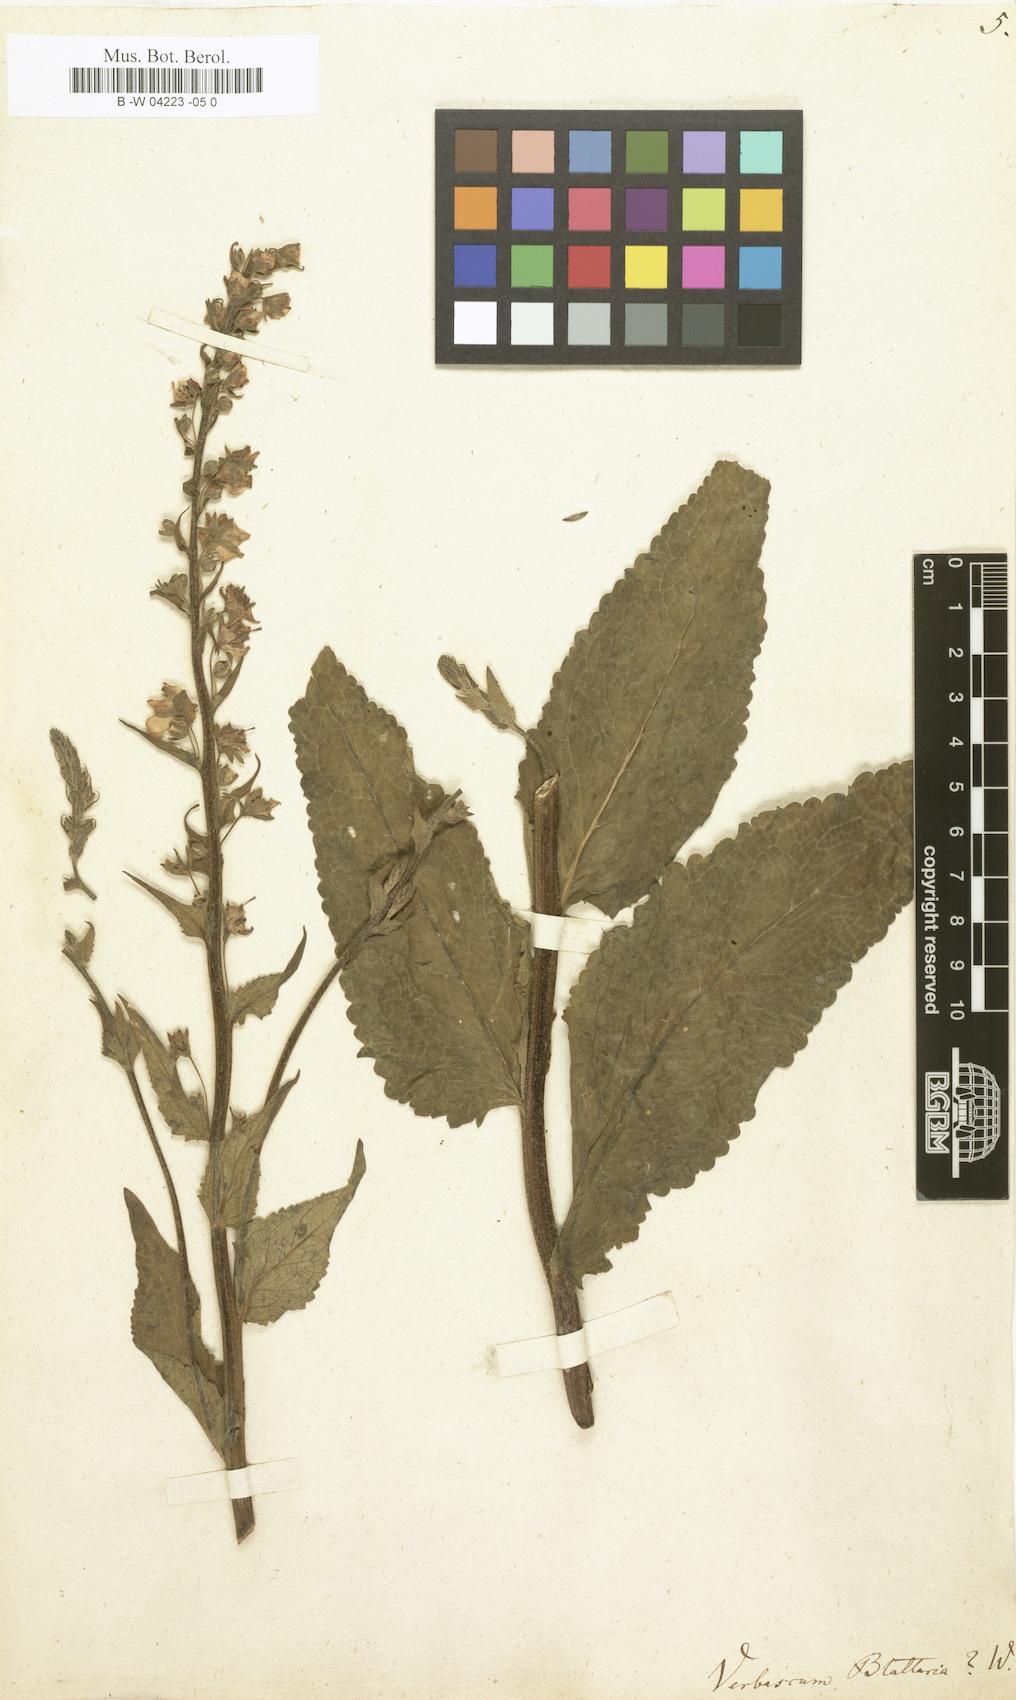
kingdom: Plantae
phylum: Tracheophyta
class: Magnoliopsida
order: Lamiales
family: Scrophulariaceae
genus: Verbascum
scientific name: Verbascum blattaria
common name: Moth mullein
